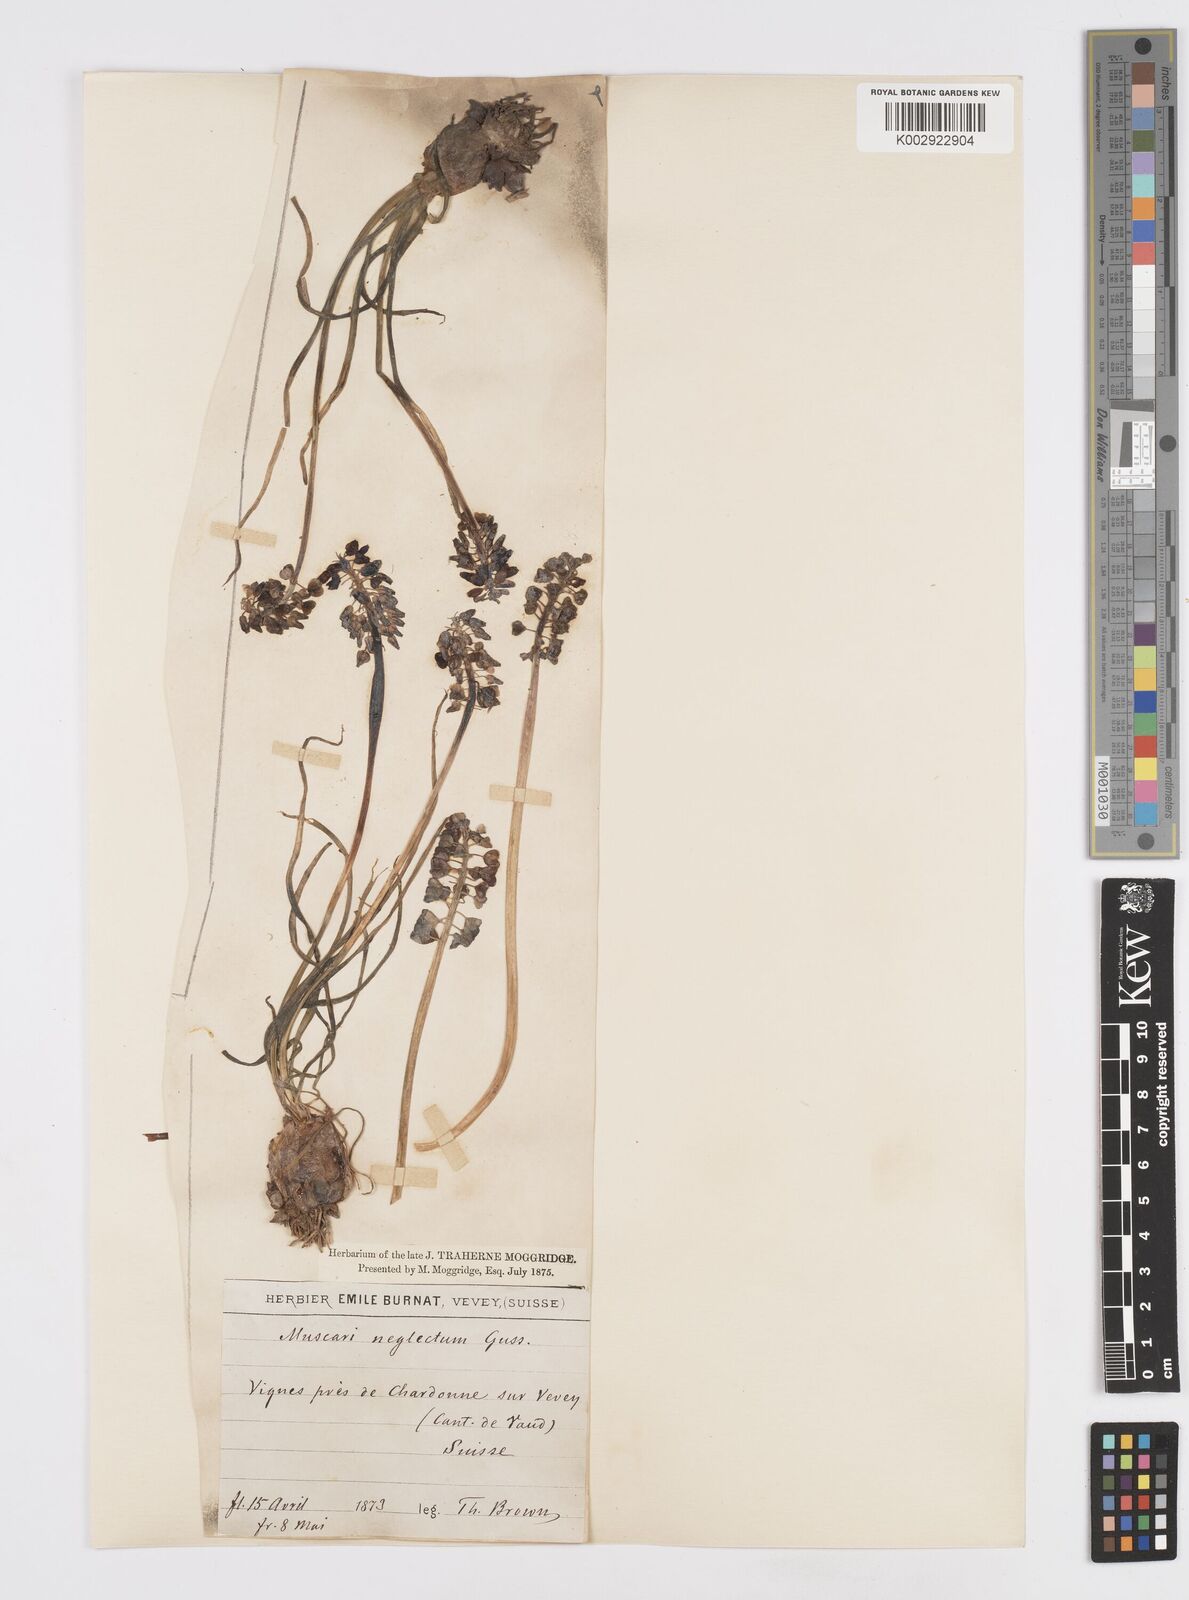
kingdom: Plantae
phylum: Tracheophyta
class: Liliopsida
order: Asparagales
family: Asparagaceae
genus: Muscari
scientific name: Muscari neglectum
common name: Grape-hyacinth
